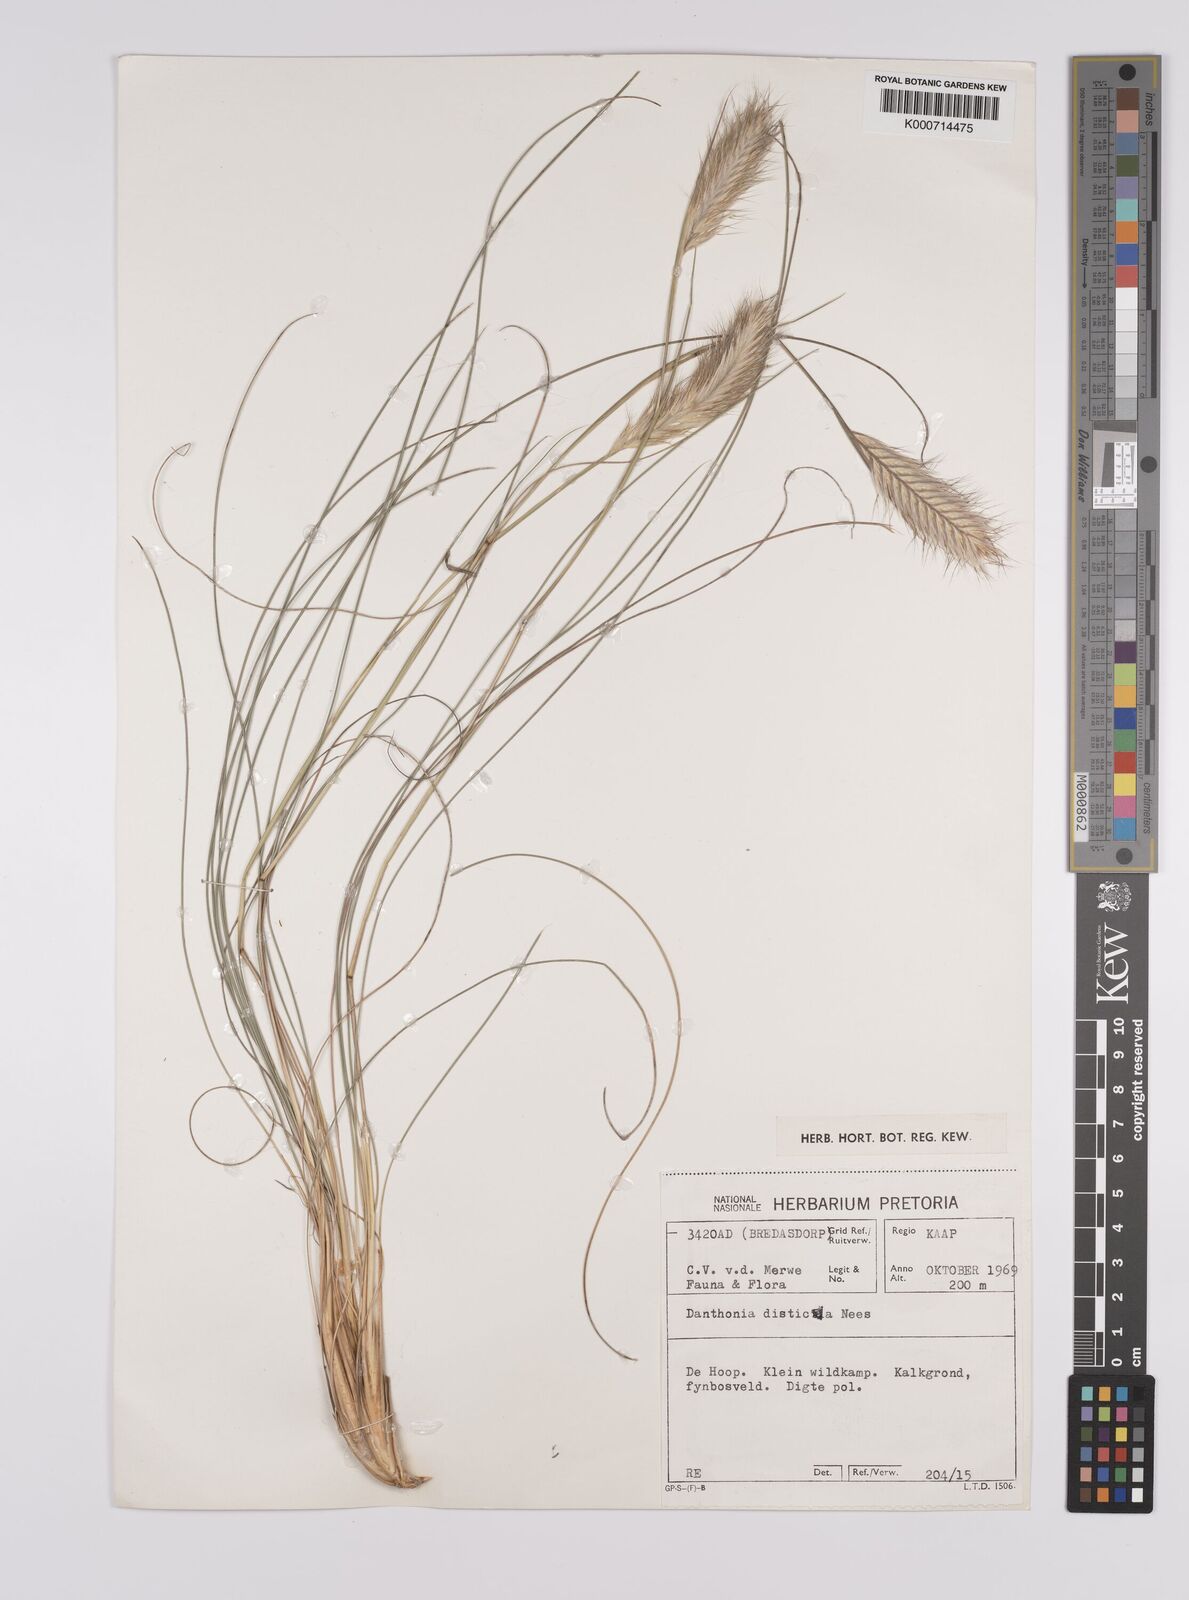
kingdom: Plantae
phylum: Tracheophyta
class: Liliopsida
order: Poales
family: Poaceae
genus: Tenaxia
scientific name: Tenaxia disticha
